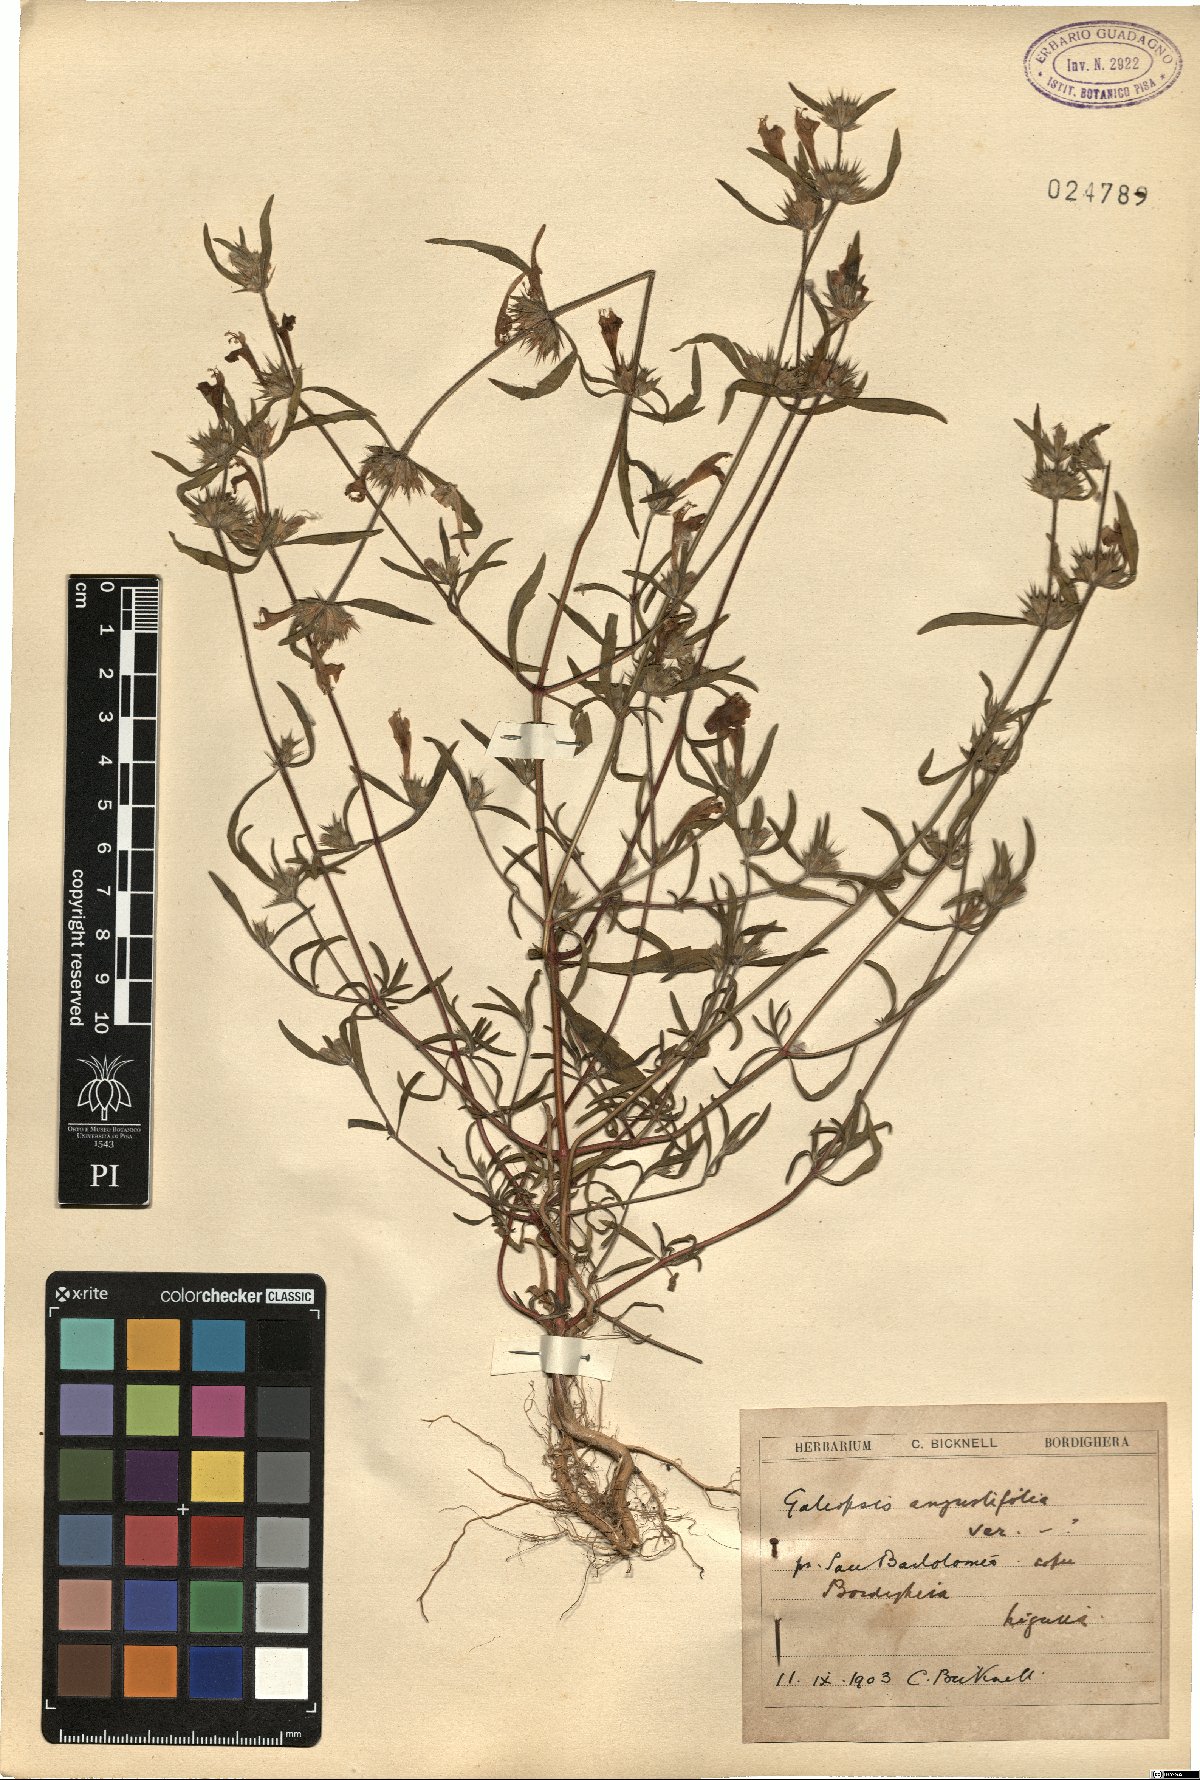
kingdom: Plantae
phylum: Tracheophyta
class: Magnoliopsida
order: Lamiales
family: Lamiaceae
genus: Galeopsis
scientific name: Galeopsis angustifolia
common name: Red hemp-nettle
